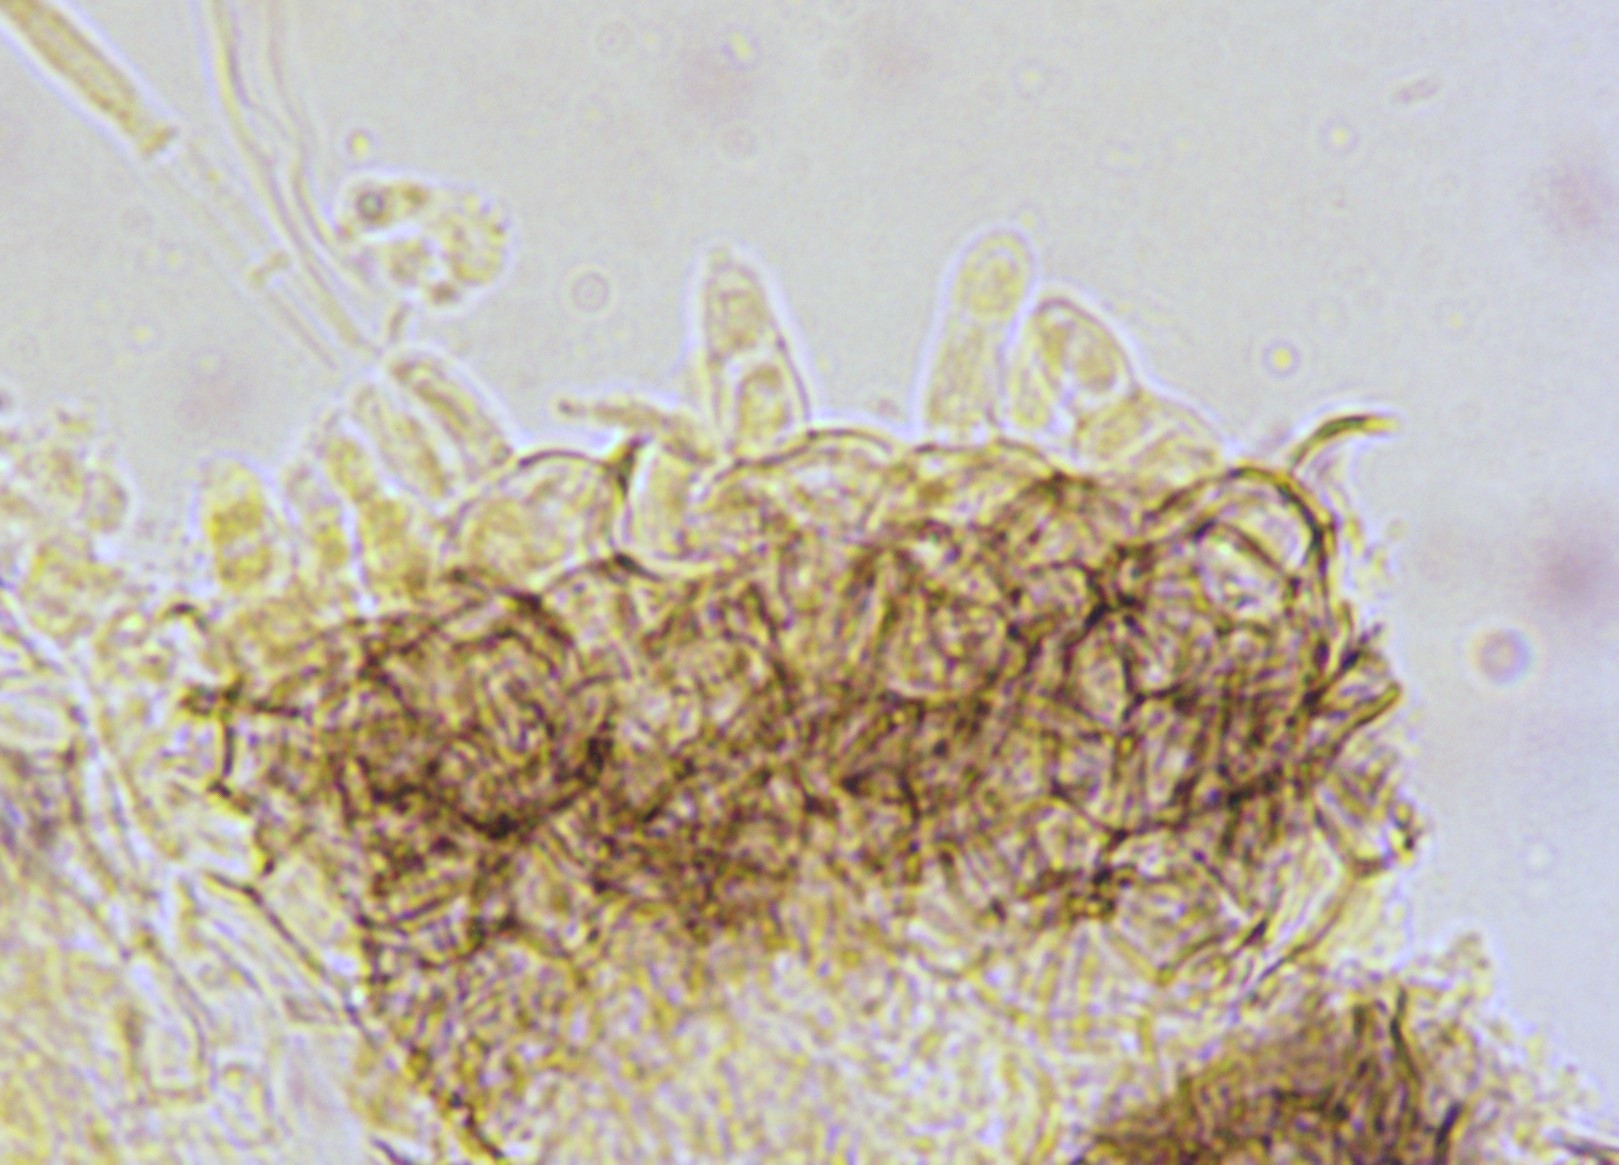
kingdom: Fungi
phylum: Ascomycota
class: Leotiomycetes
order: Helotiales
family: Mollisiaceae
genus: Mollisia
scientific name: Mollisia
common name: gråskive
